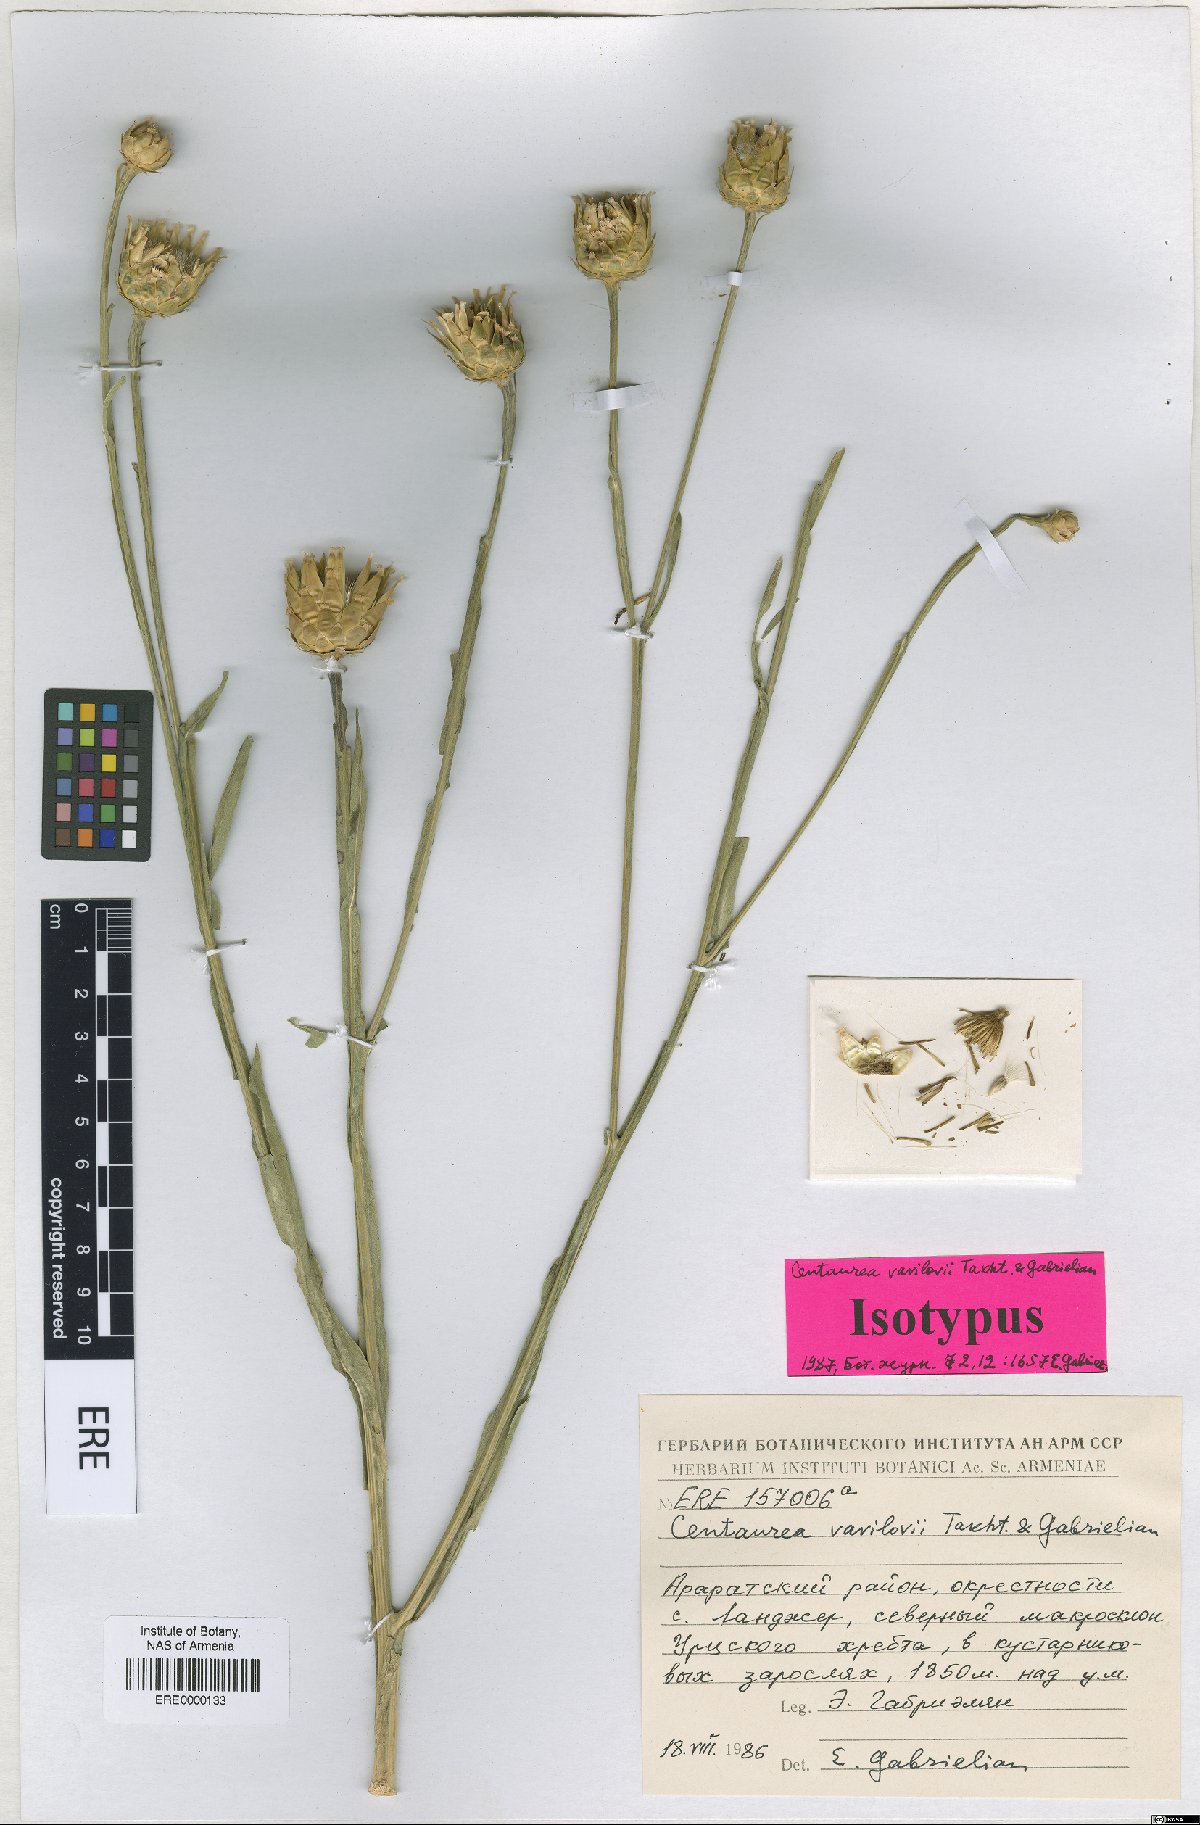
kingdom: Plantae
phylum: Tracheophyta
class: Magnoliopsida
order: Asterales
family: Asteraceae
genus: Centaurea
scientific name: Centaurea vavilovii
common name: Vavilov's centaury
